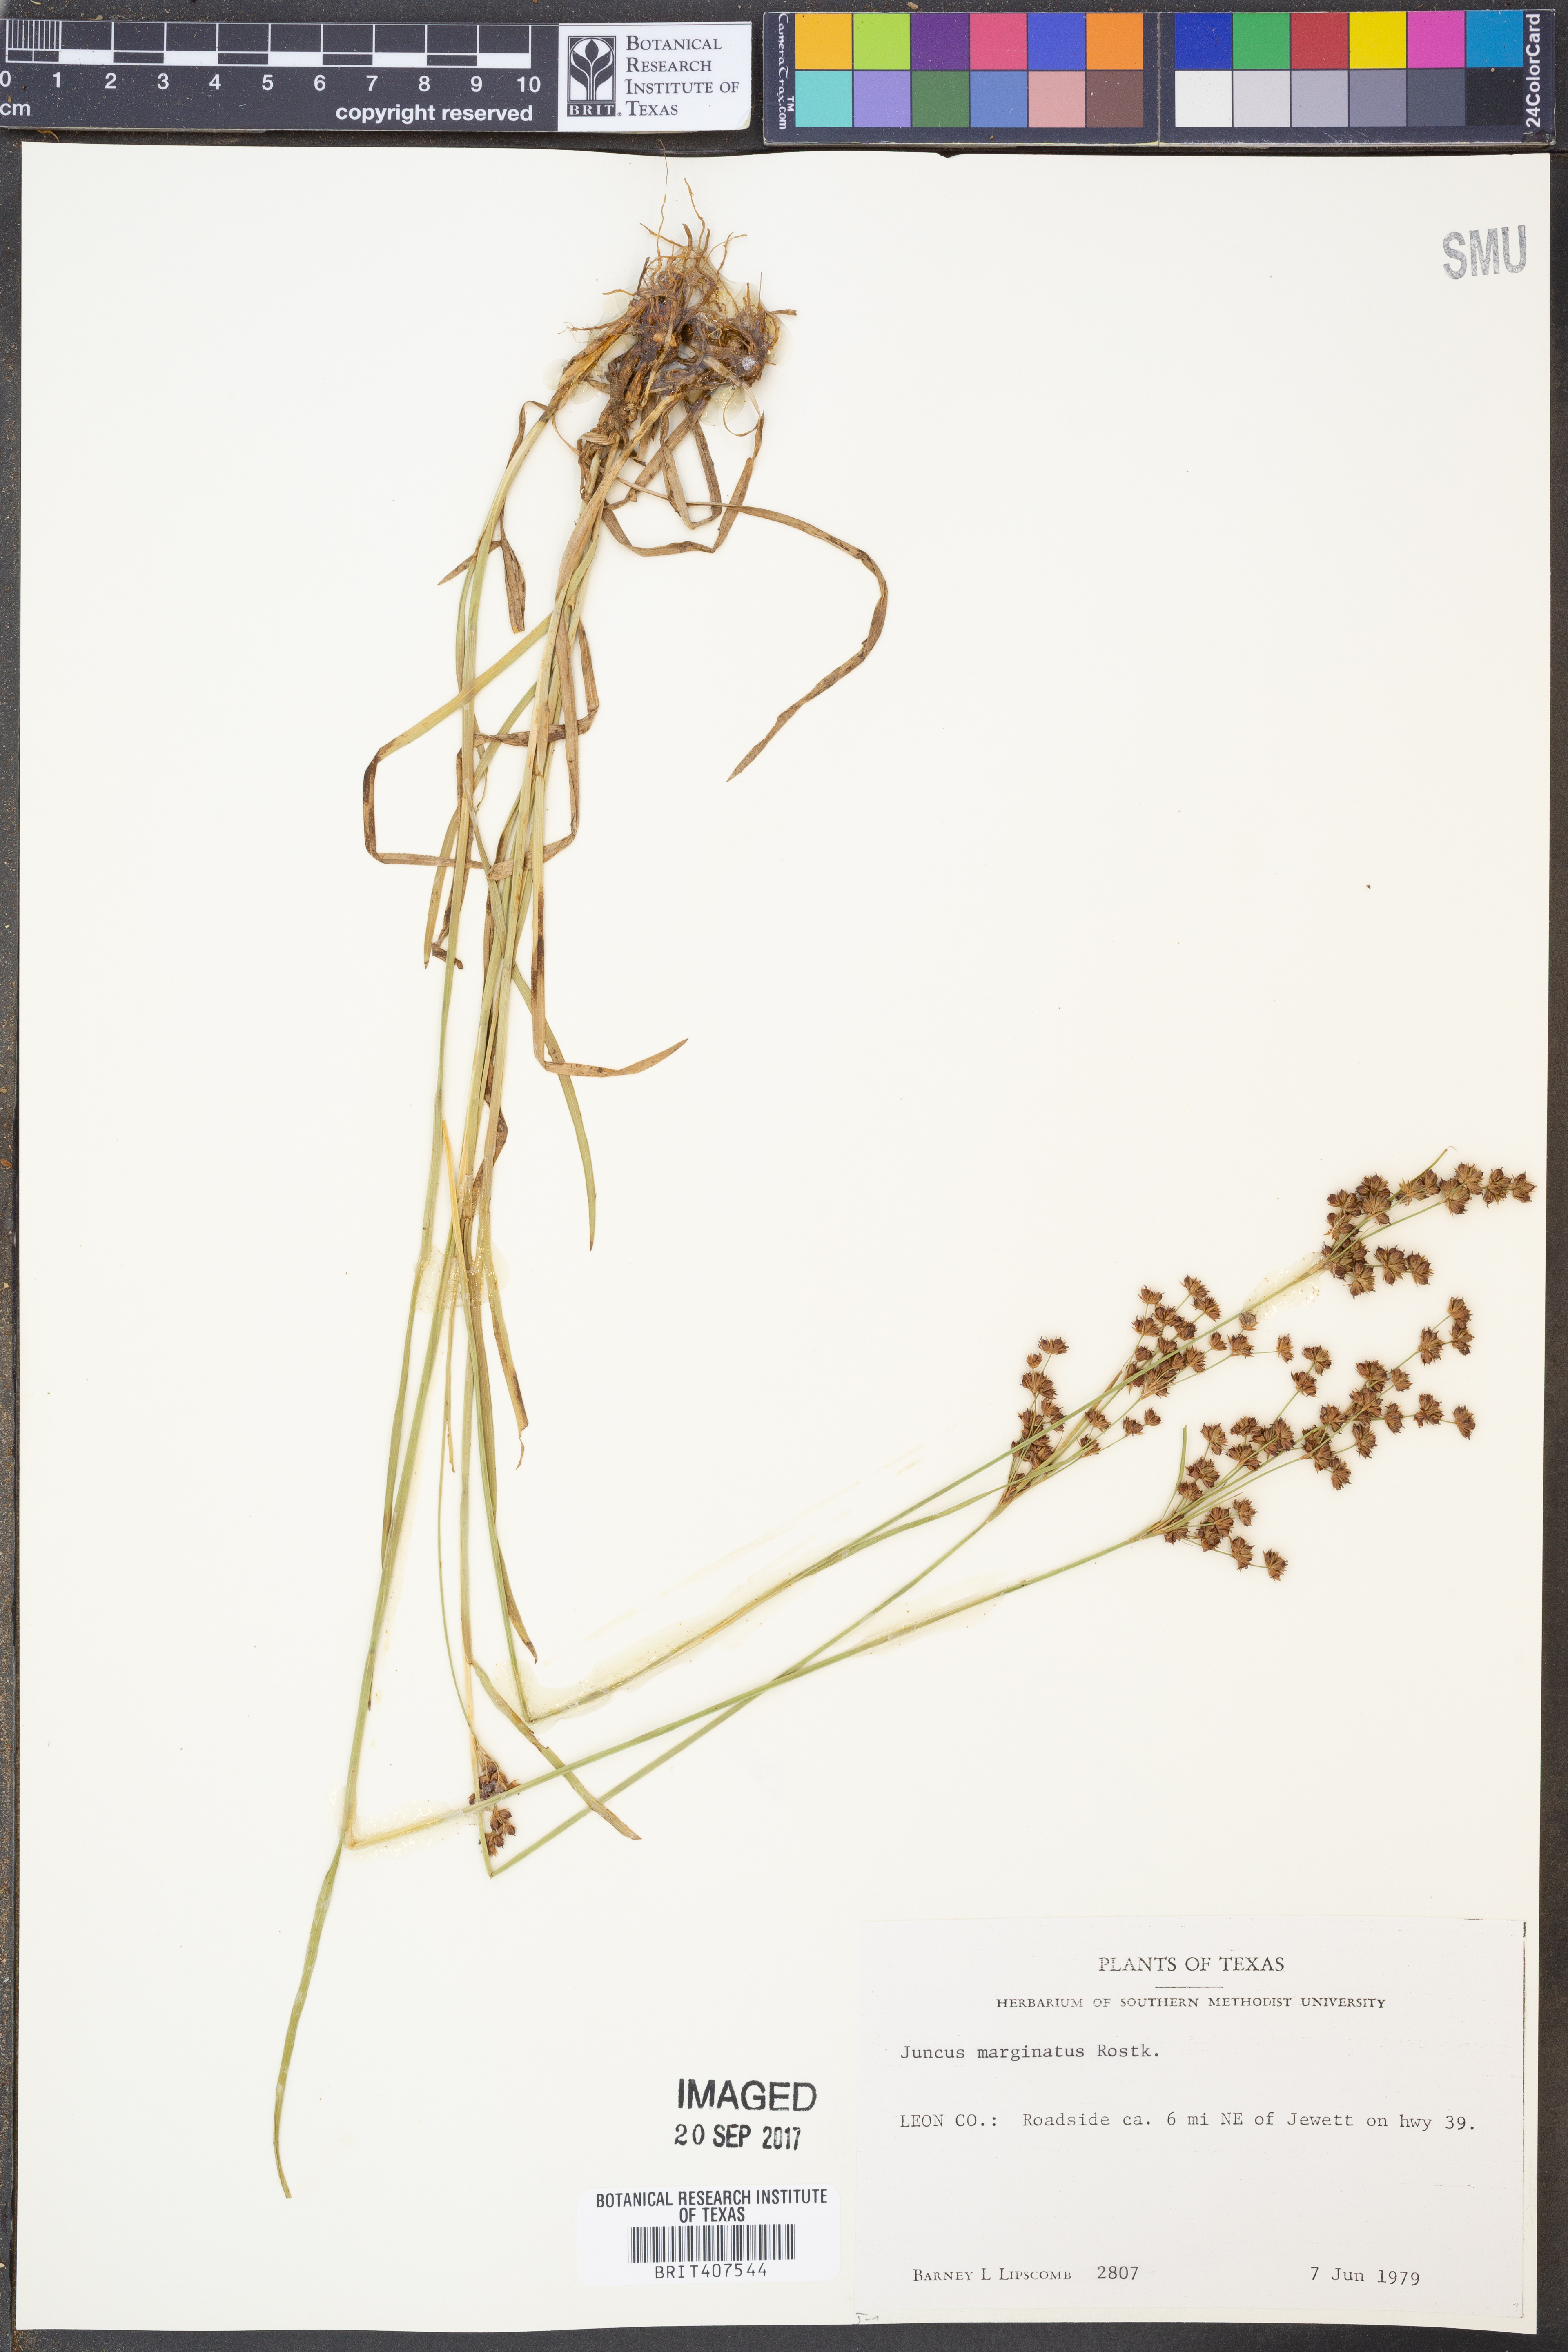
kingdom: Plantae
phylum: Tracheophyta
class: Liliopsida
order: Poales
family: Juncaceae
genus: Juncus
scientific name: Juncus marginatus
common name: Grass-leaf rush
